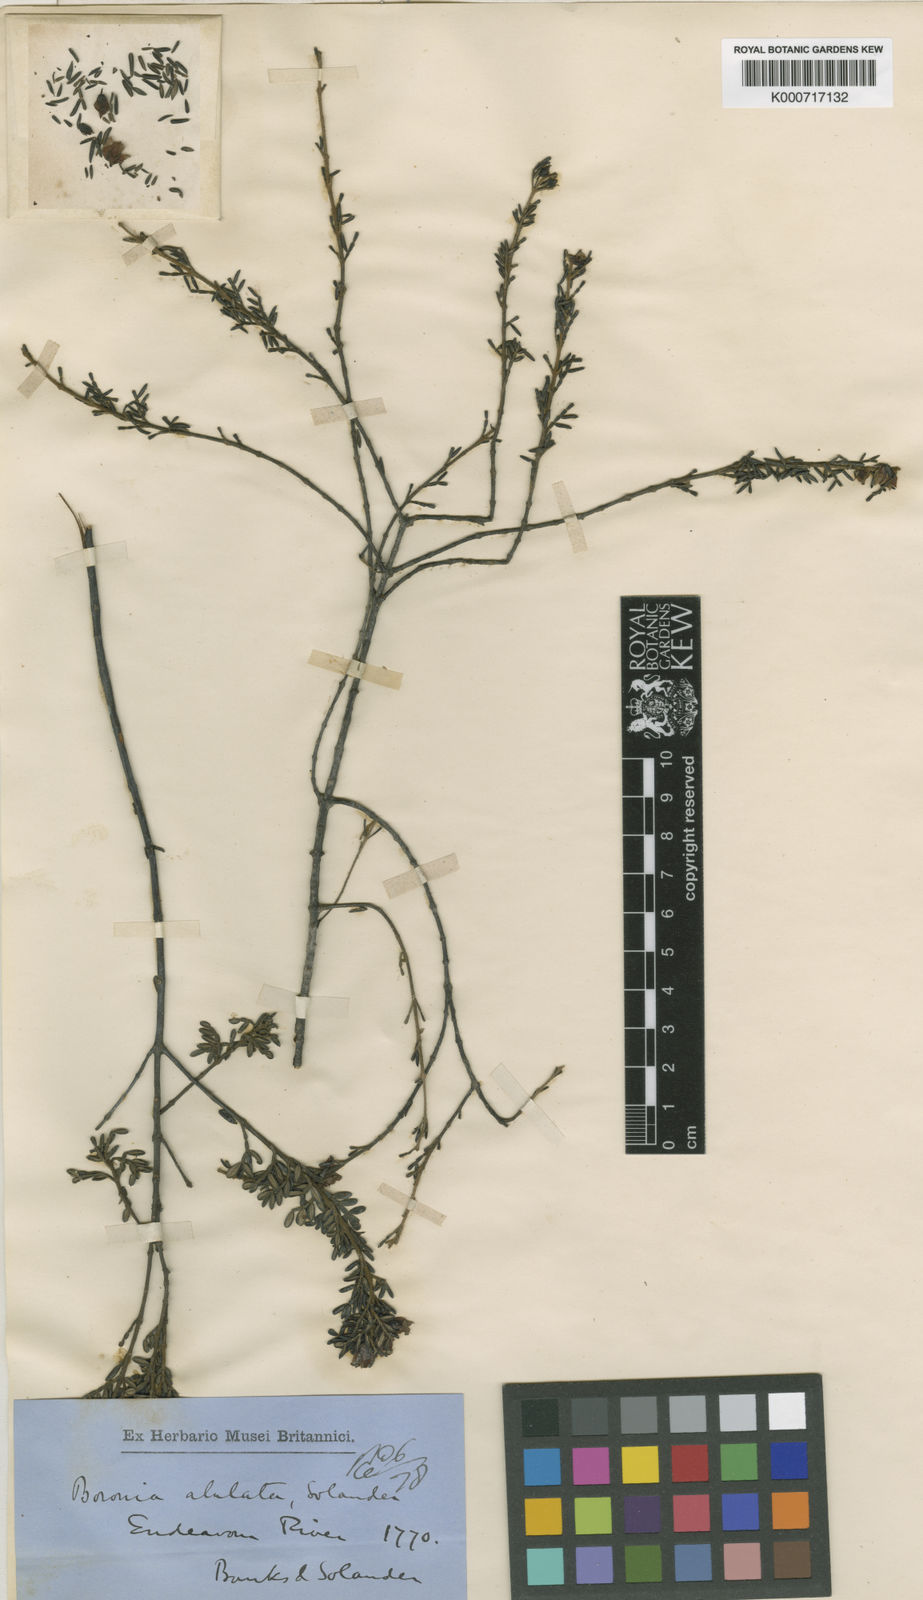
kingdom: Plantae
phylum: Tracheophyta
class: Magnoliopsida
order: Sapindales
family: Rutaceae
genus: Boronia
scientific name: Boronia alulata
